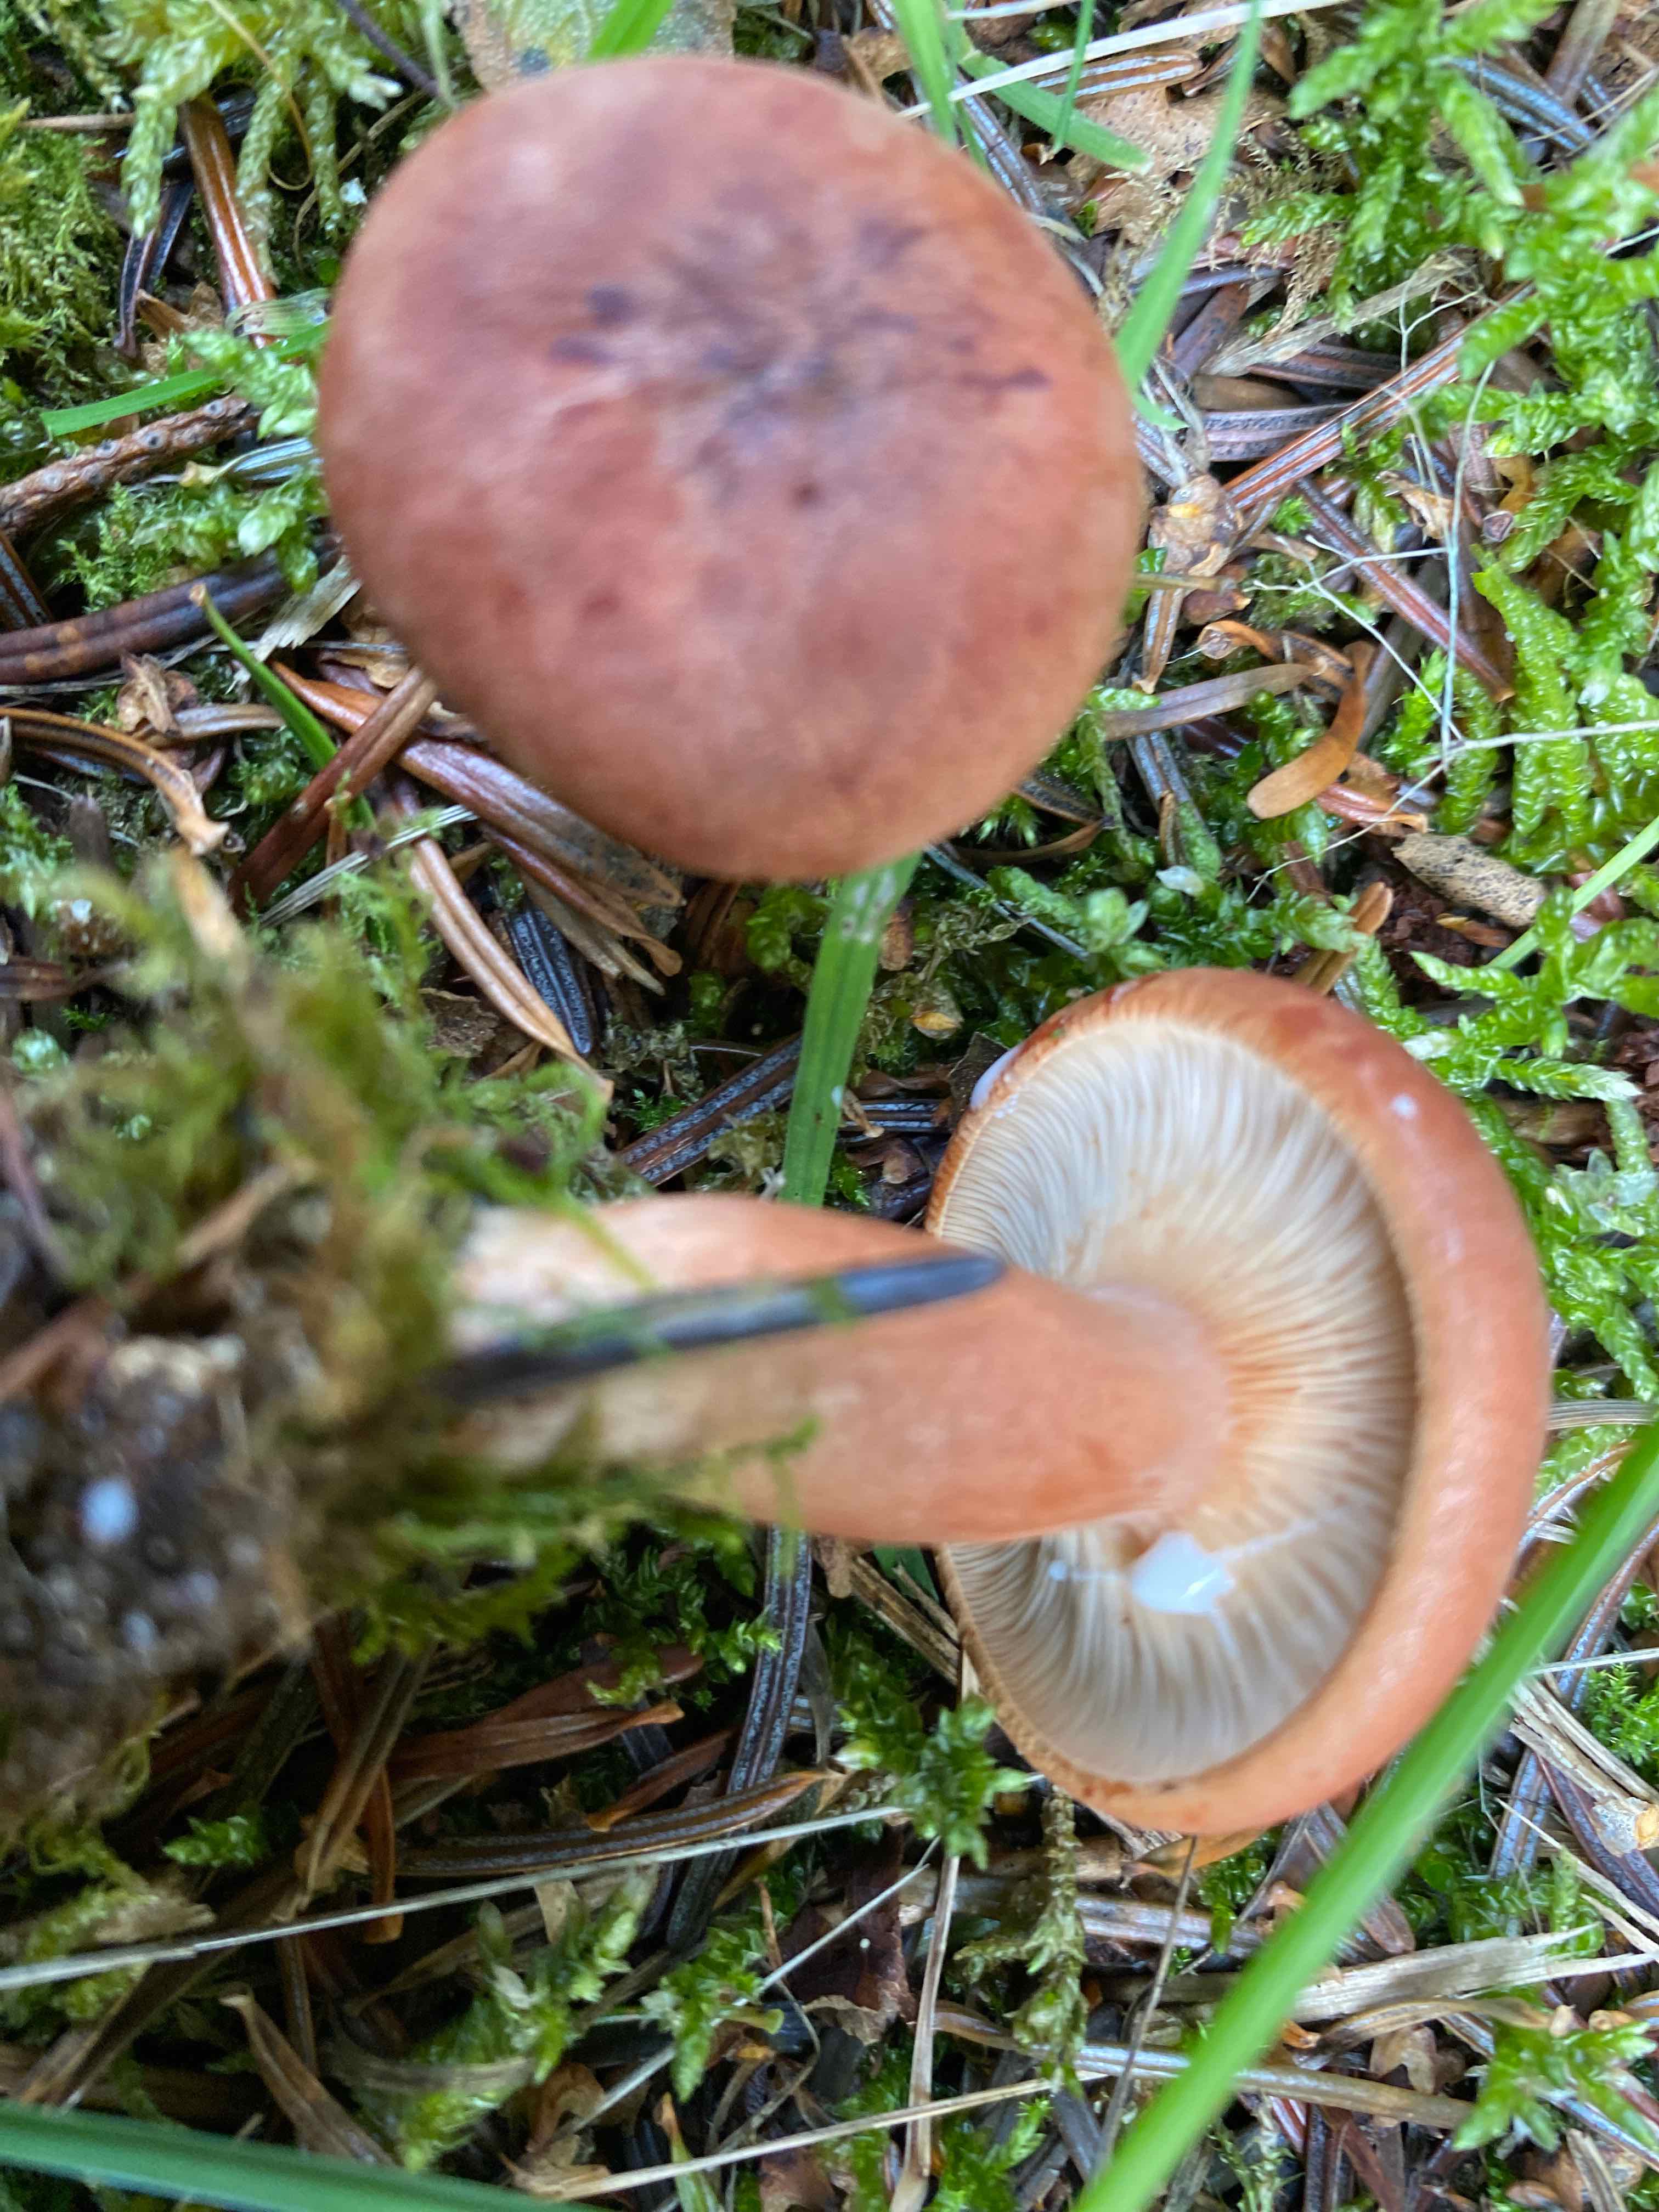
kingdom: Fungi
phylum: Basidiomycota
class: Agaricomycetes
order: Russulales
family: Russulaceae
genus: Lactarius
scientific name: Lactarius rufus
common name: rødbrun mælkehat
